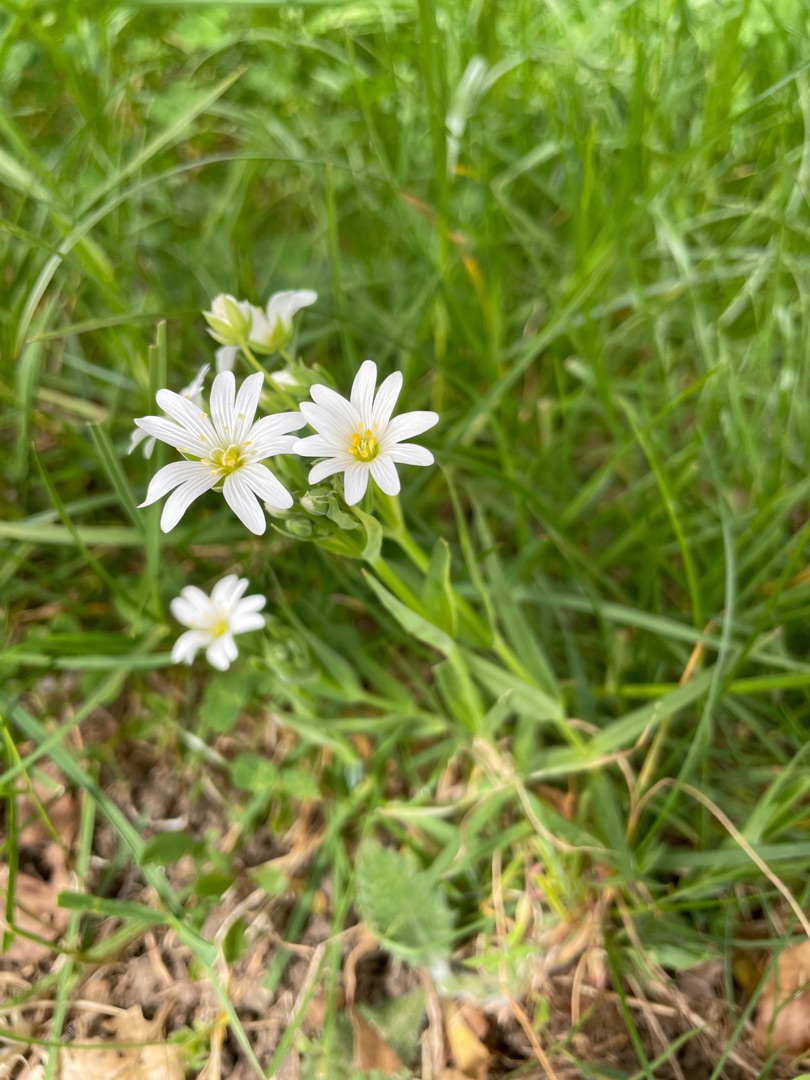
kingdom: Plantae
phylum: Tracheophyta
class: Magnoliopsida
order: Caryophyllales
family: Caryophyllaceae
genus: Rabelera
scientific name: Rabelera holostea
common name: Stor fladstjerne
